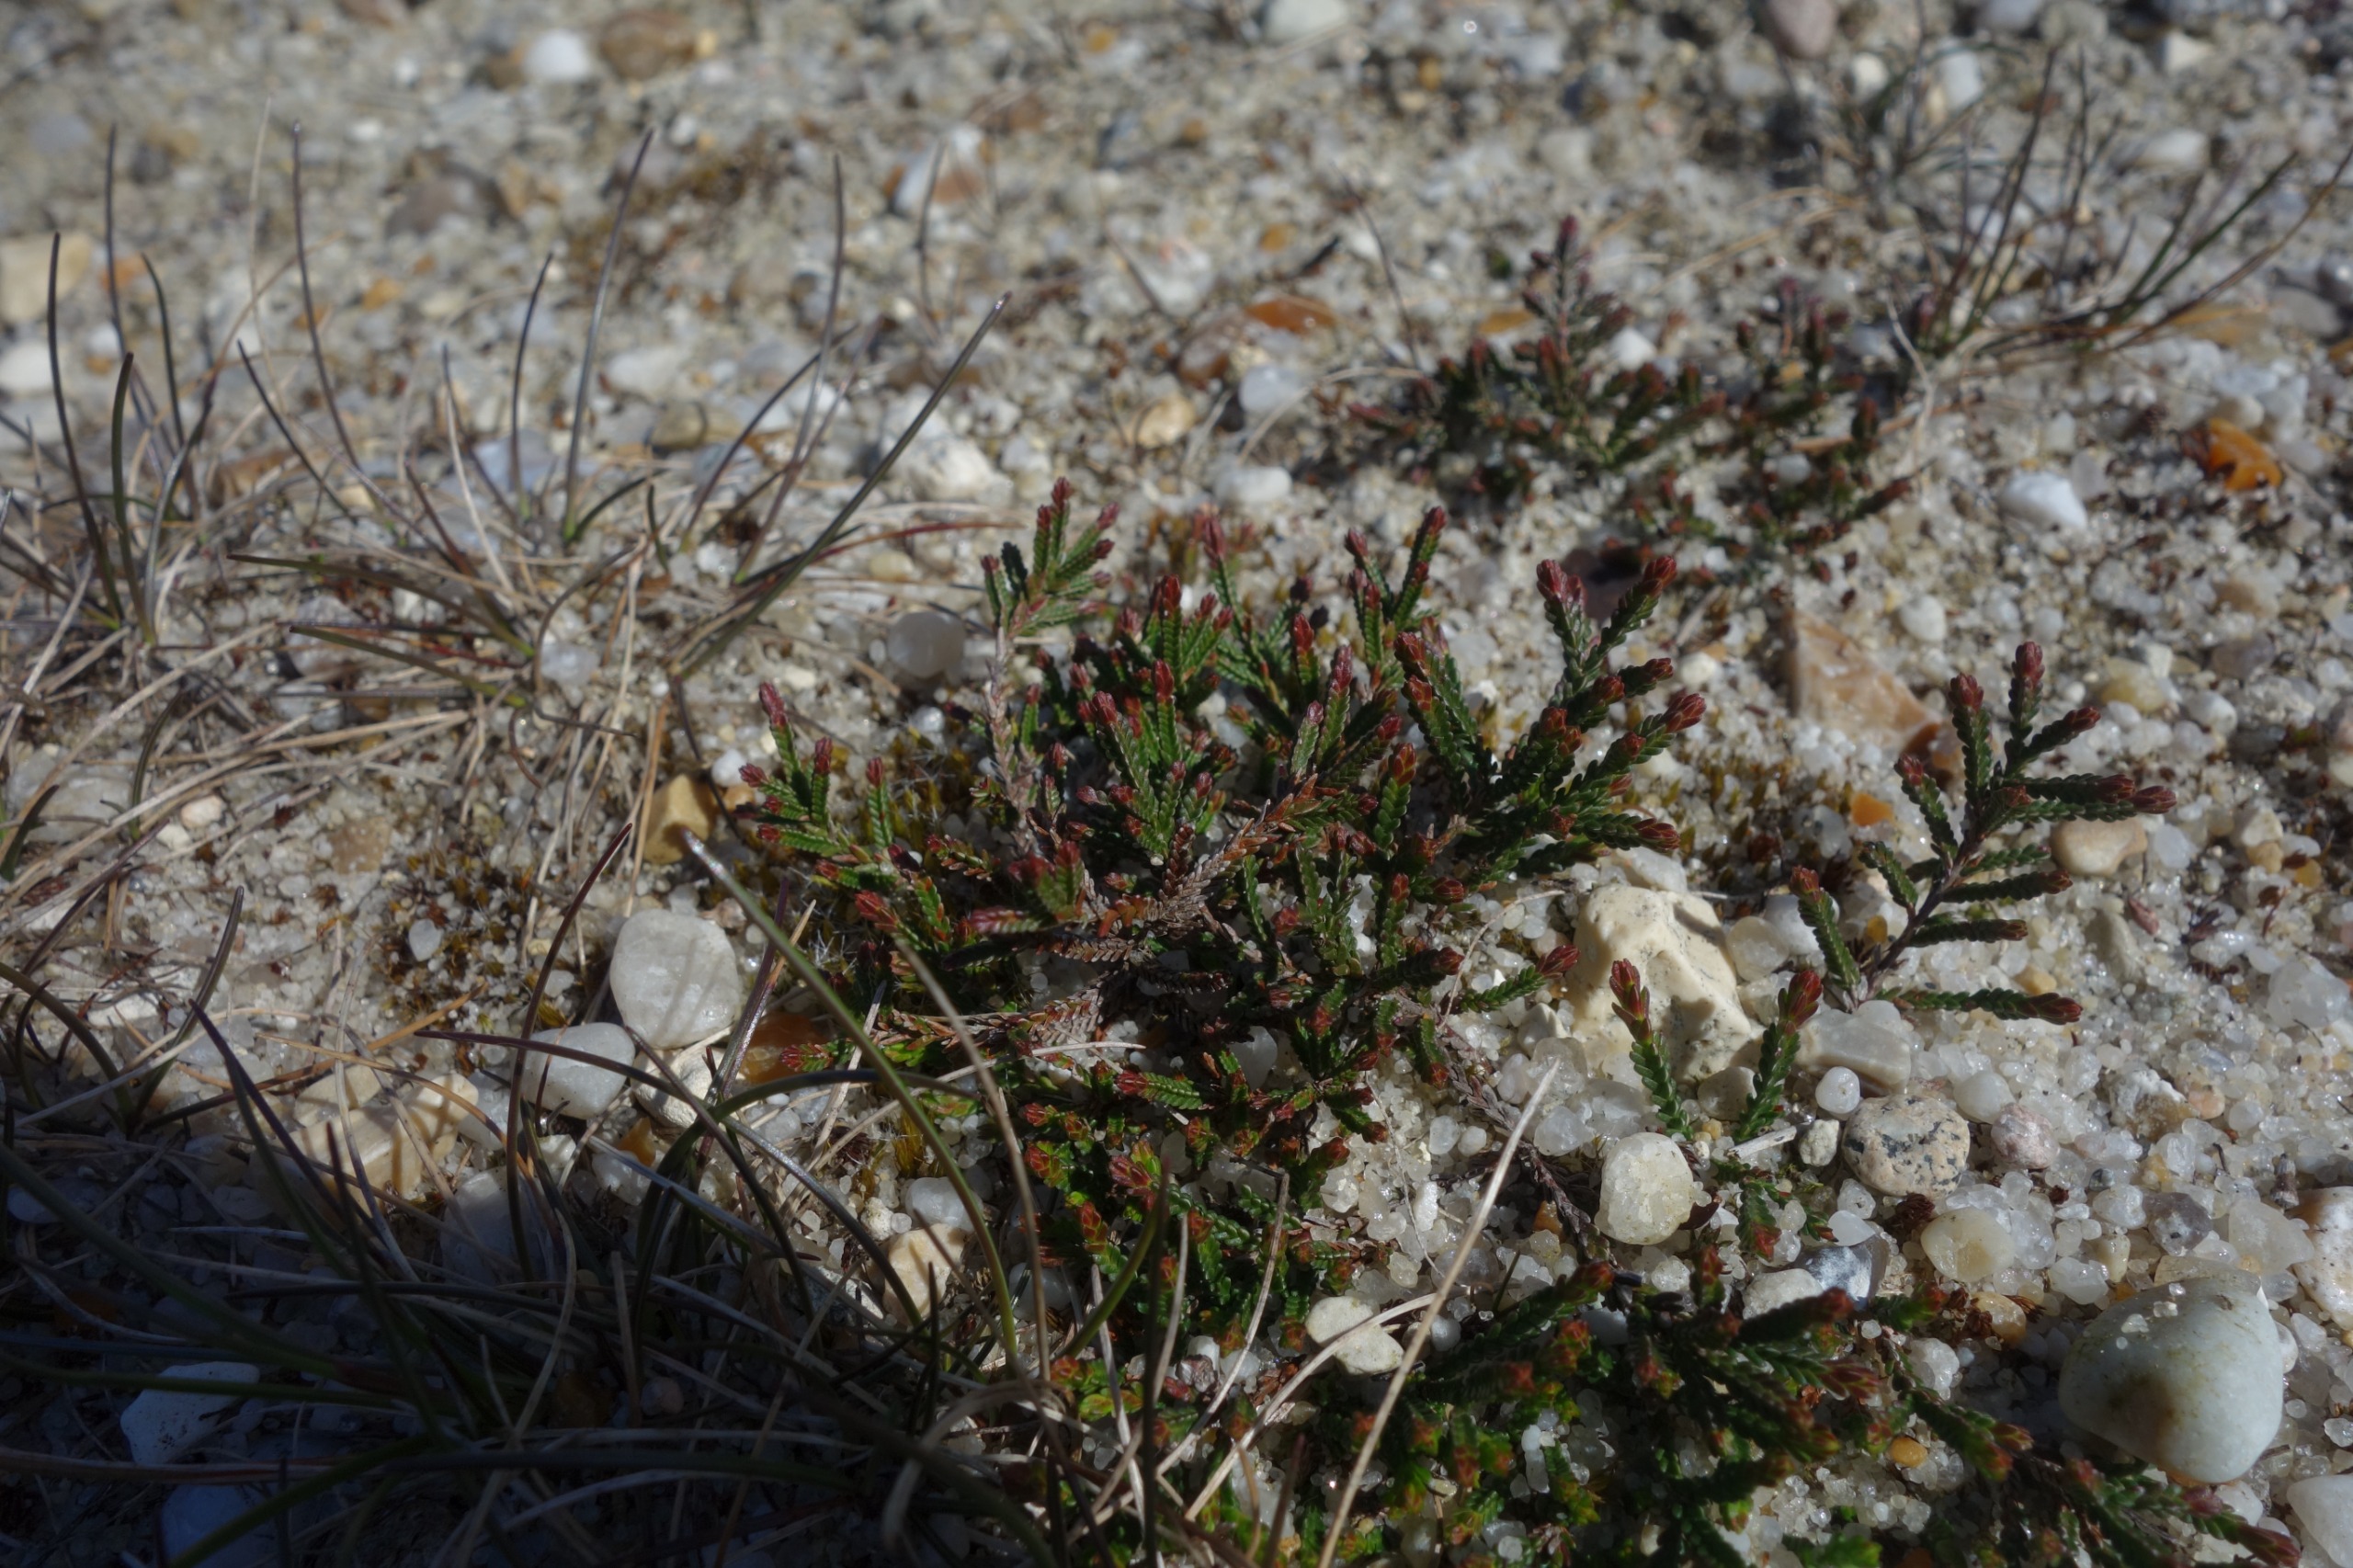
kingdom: Plantae
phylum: Tracheophyta
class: Magnoliopsida
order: Ericales
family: Ericaceae
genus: Calluna
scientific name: Calluna vulgaris
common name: Hedelyng
